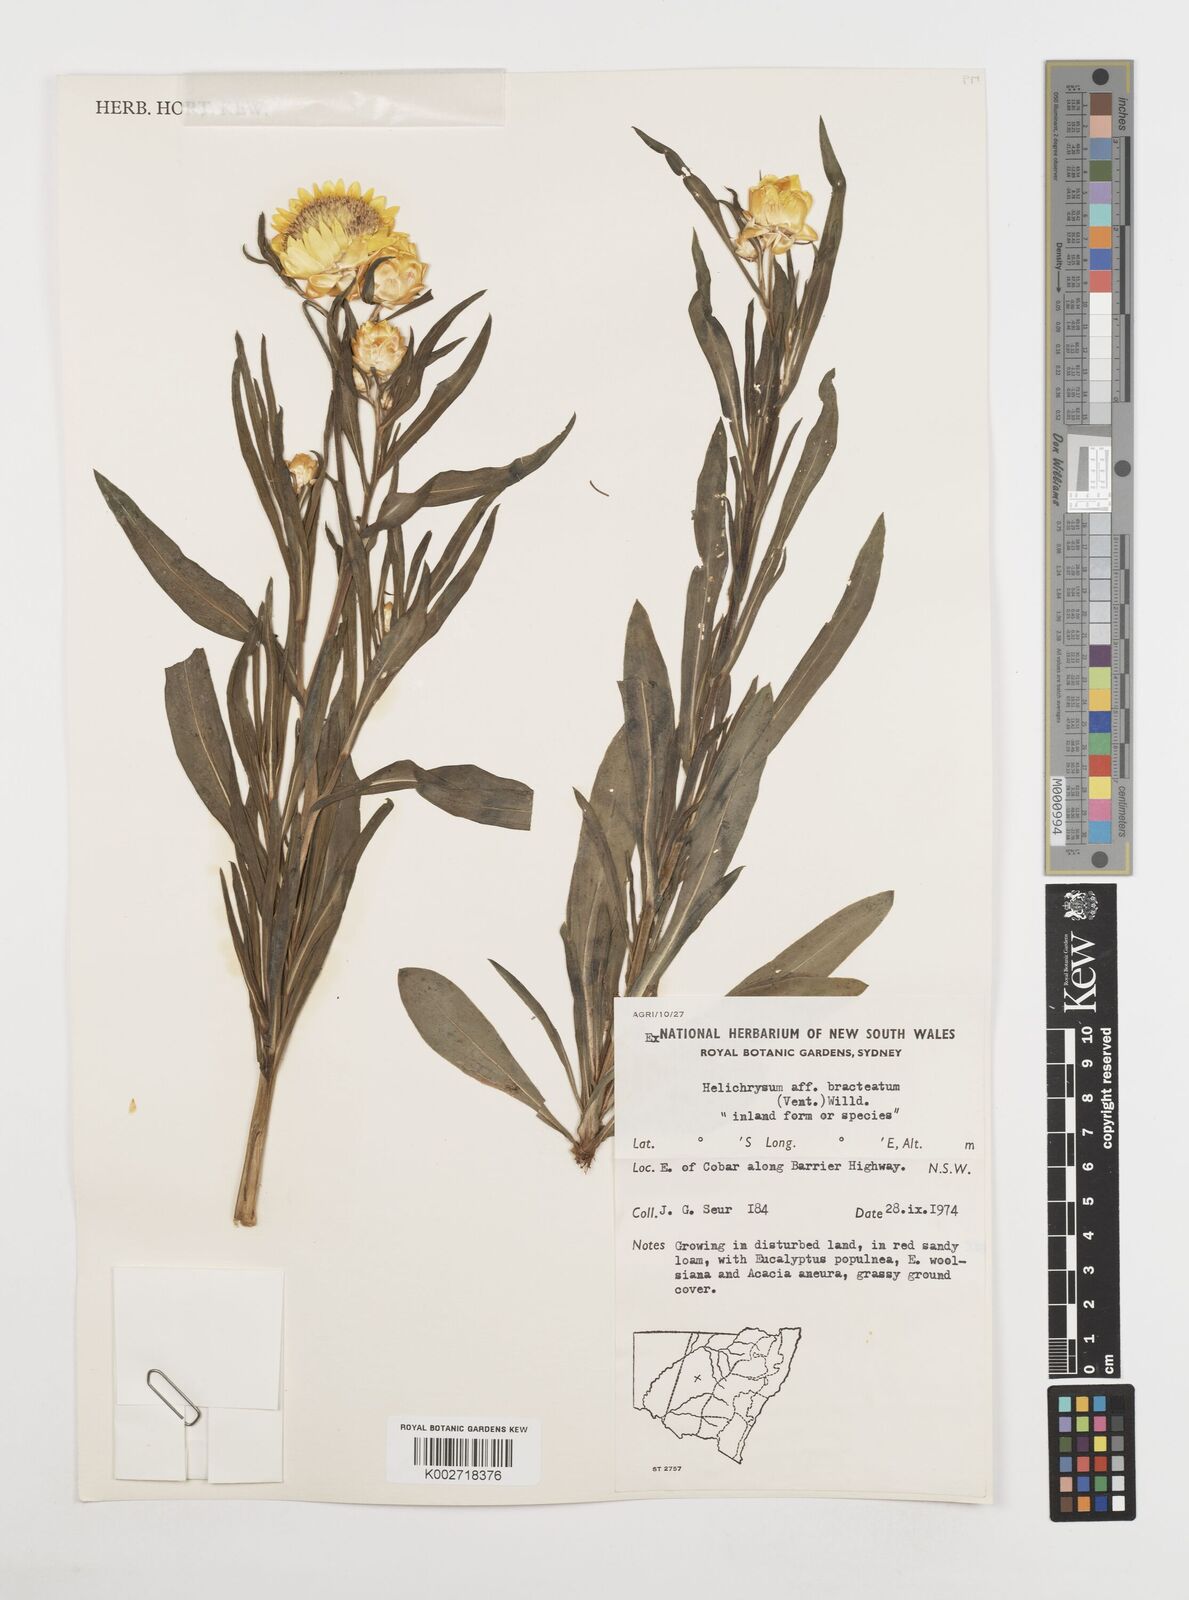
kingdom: Plantae
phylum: Tracheophyta
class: Magnoliopsida
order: Asterales
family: Asteraceae
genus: Xerochrysum
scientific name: Xerochrysum bracteatum
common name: Bracted strawflower
